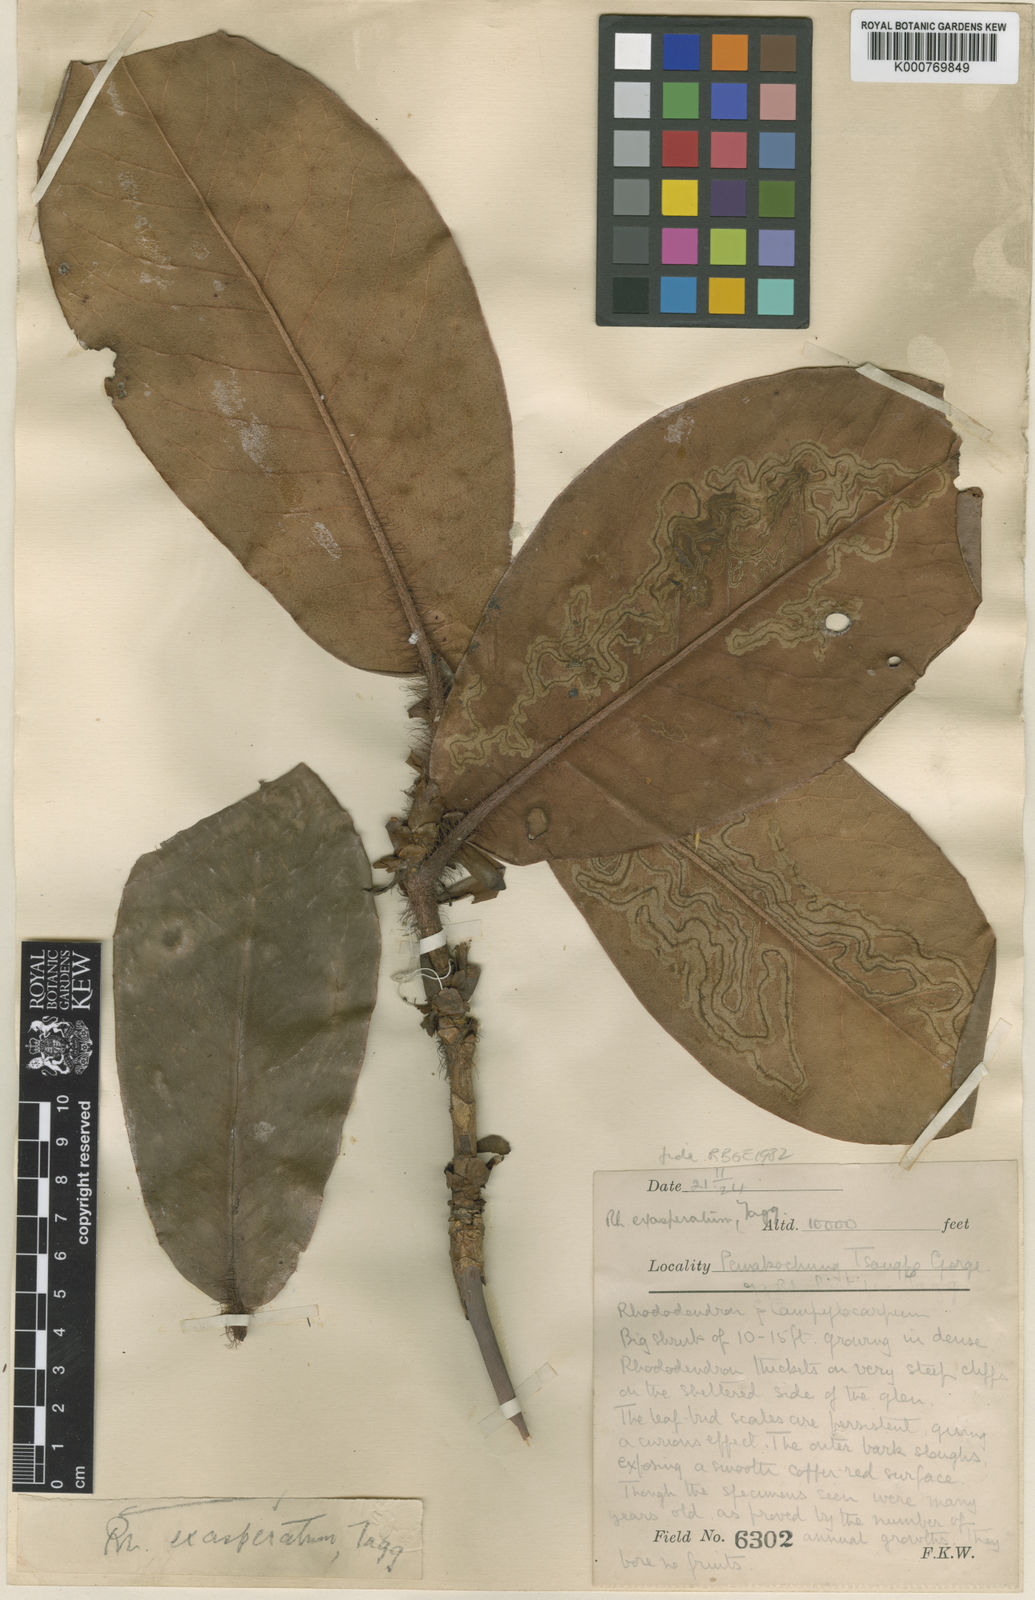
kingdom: Plantae
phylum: Tracheophyta
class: Magnoliopsida
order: Ericales
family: Ericaceae
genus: Rhododendron
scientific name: Rhododendron
